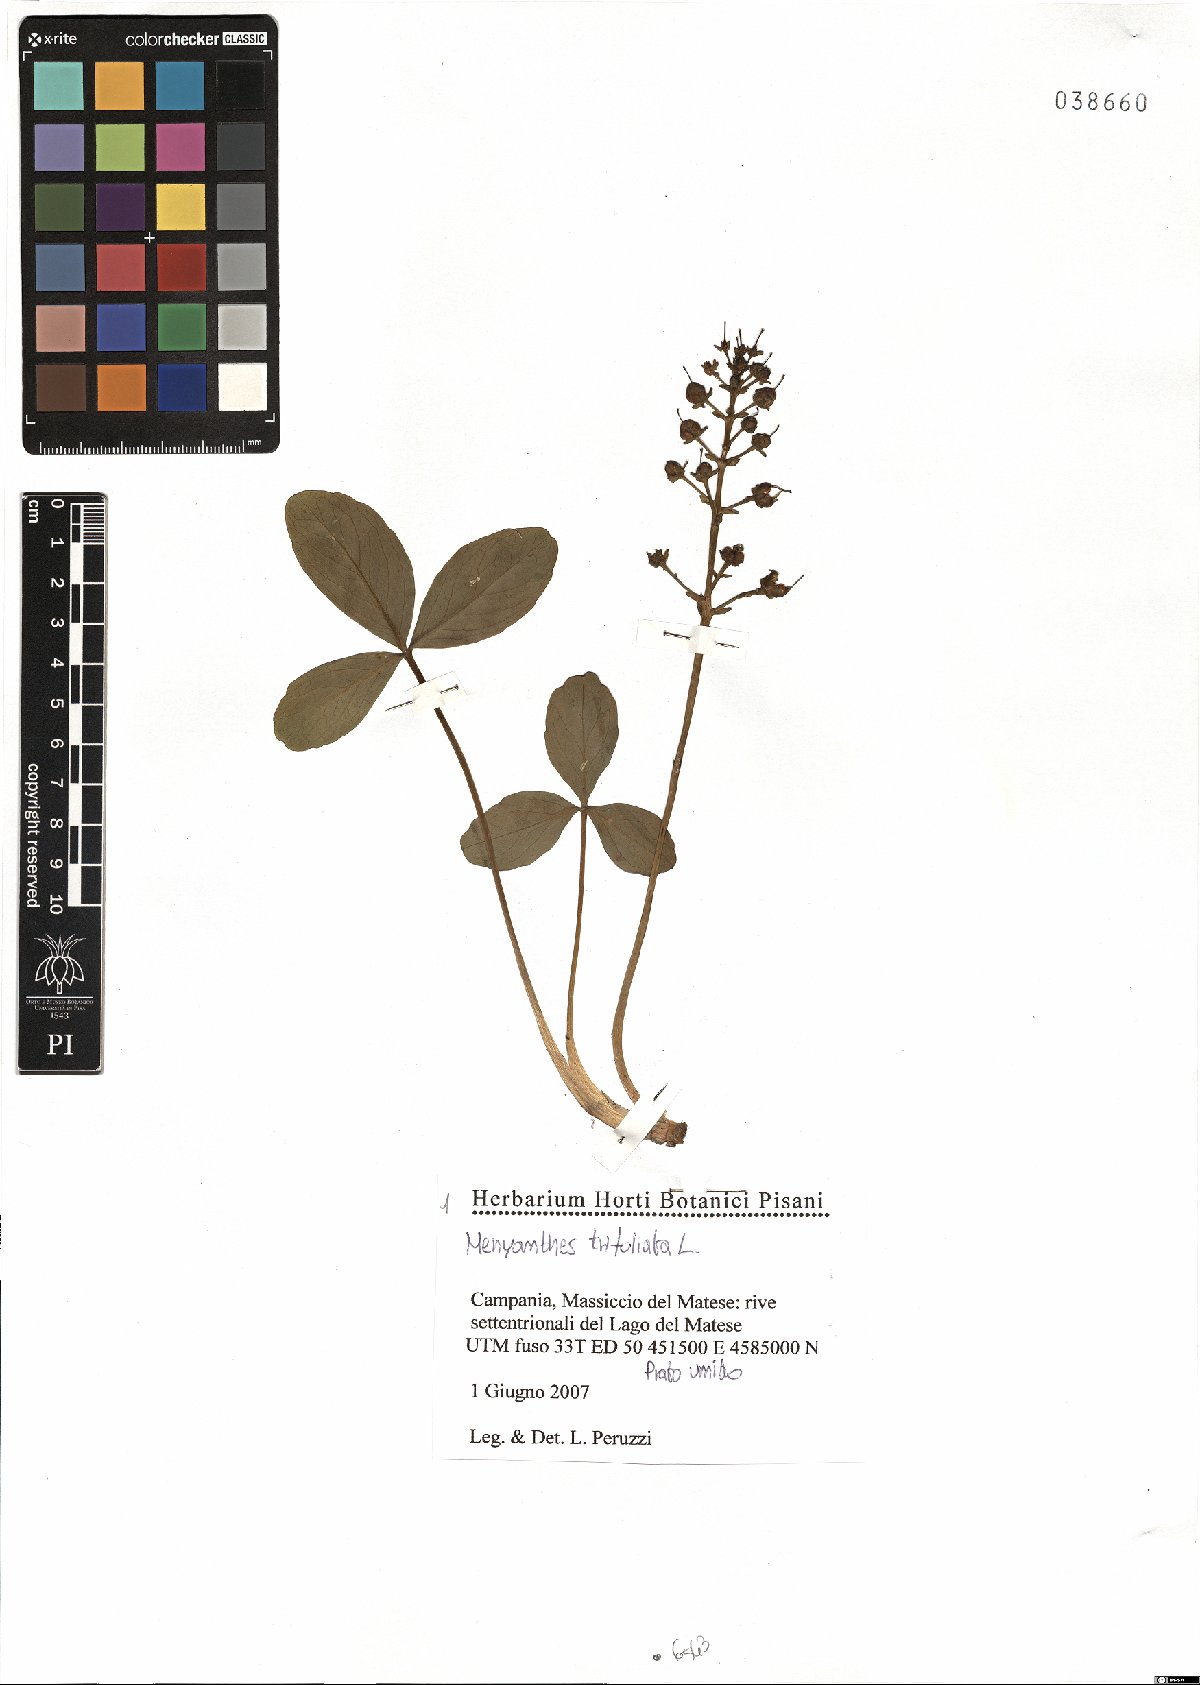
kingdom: Plantae
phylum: Tracheophyta
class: Magnoliopsida
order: Asterales
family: Menyanthaceae
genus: Menyanthes
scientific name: Menyanthes trifoliata
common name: Bogbean
